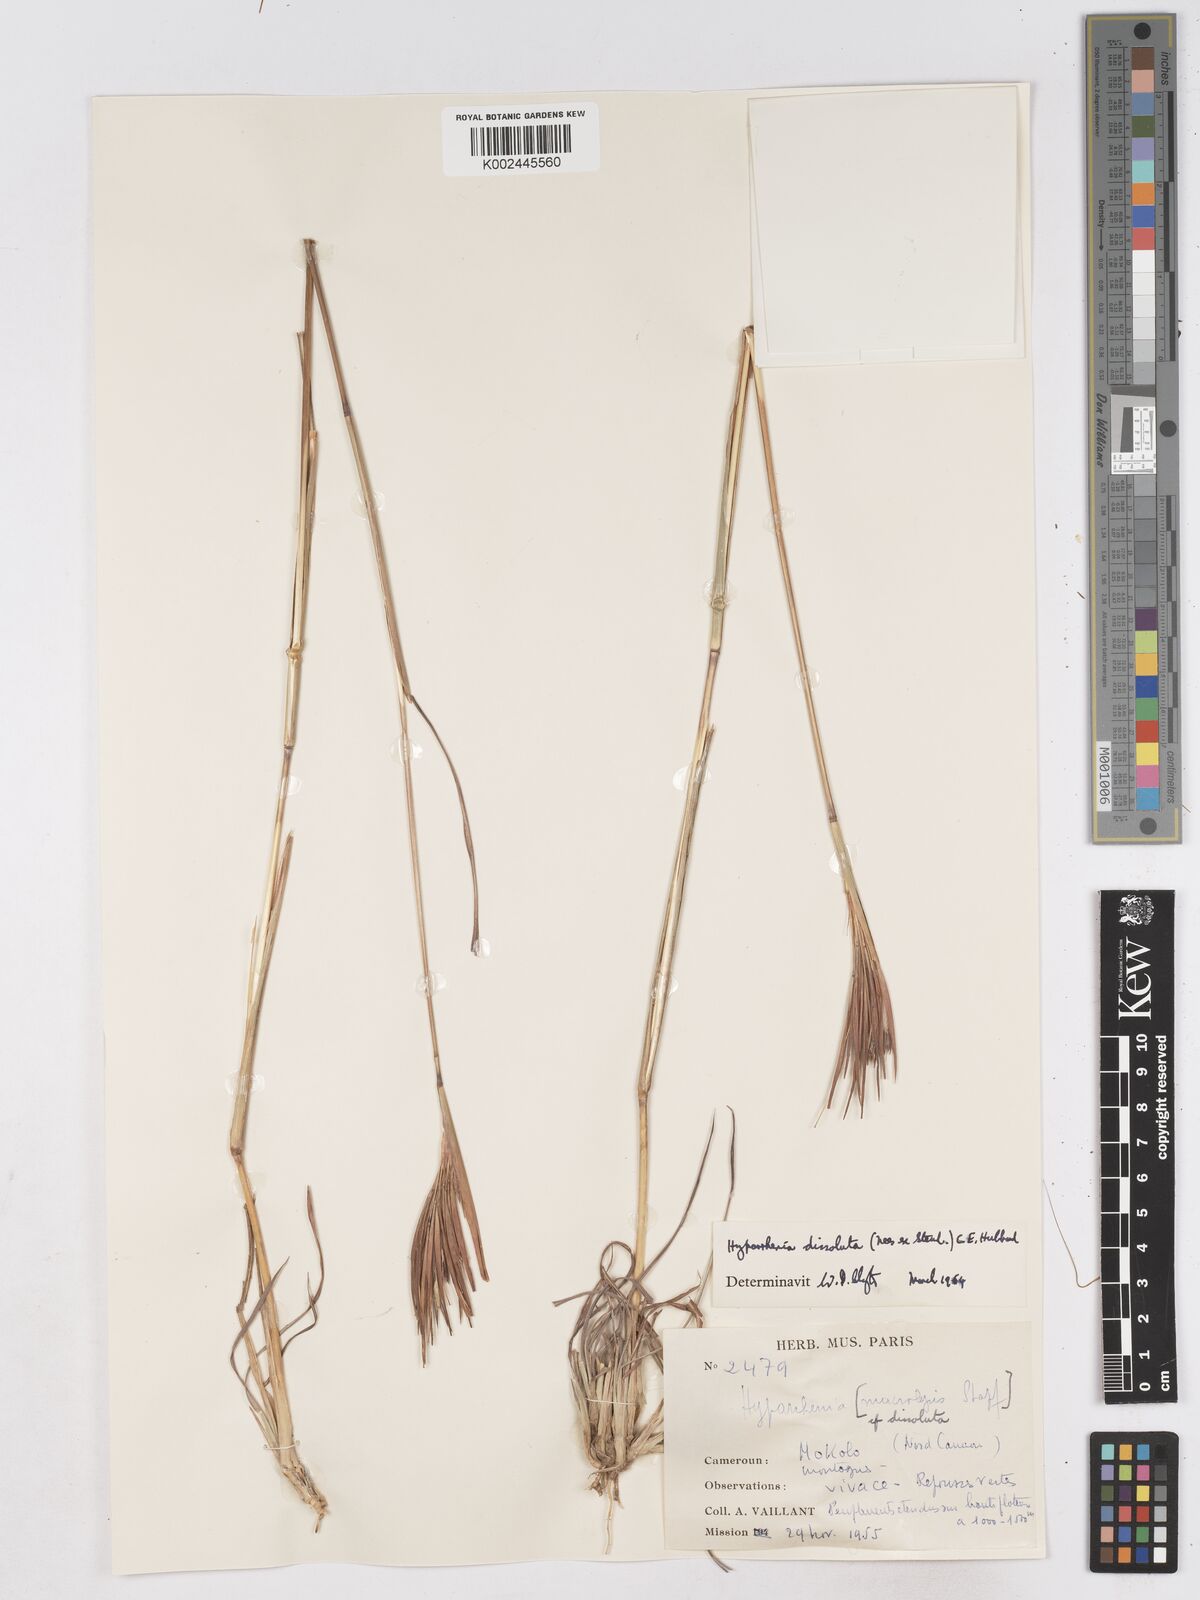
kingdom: Plantae
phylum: Tracheophyta
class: Liliopsida
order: Poales
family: Poaceae
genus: Hyperthelia
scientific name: Hyperthelia dissoluta
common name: Yellow thatching grass
